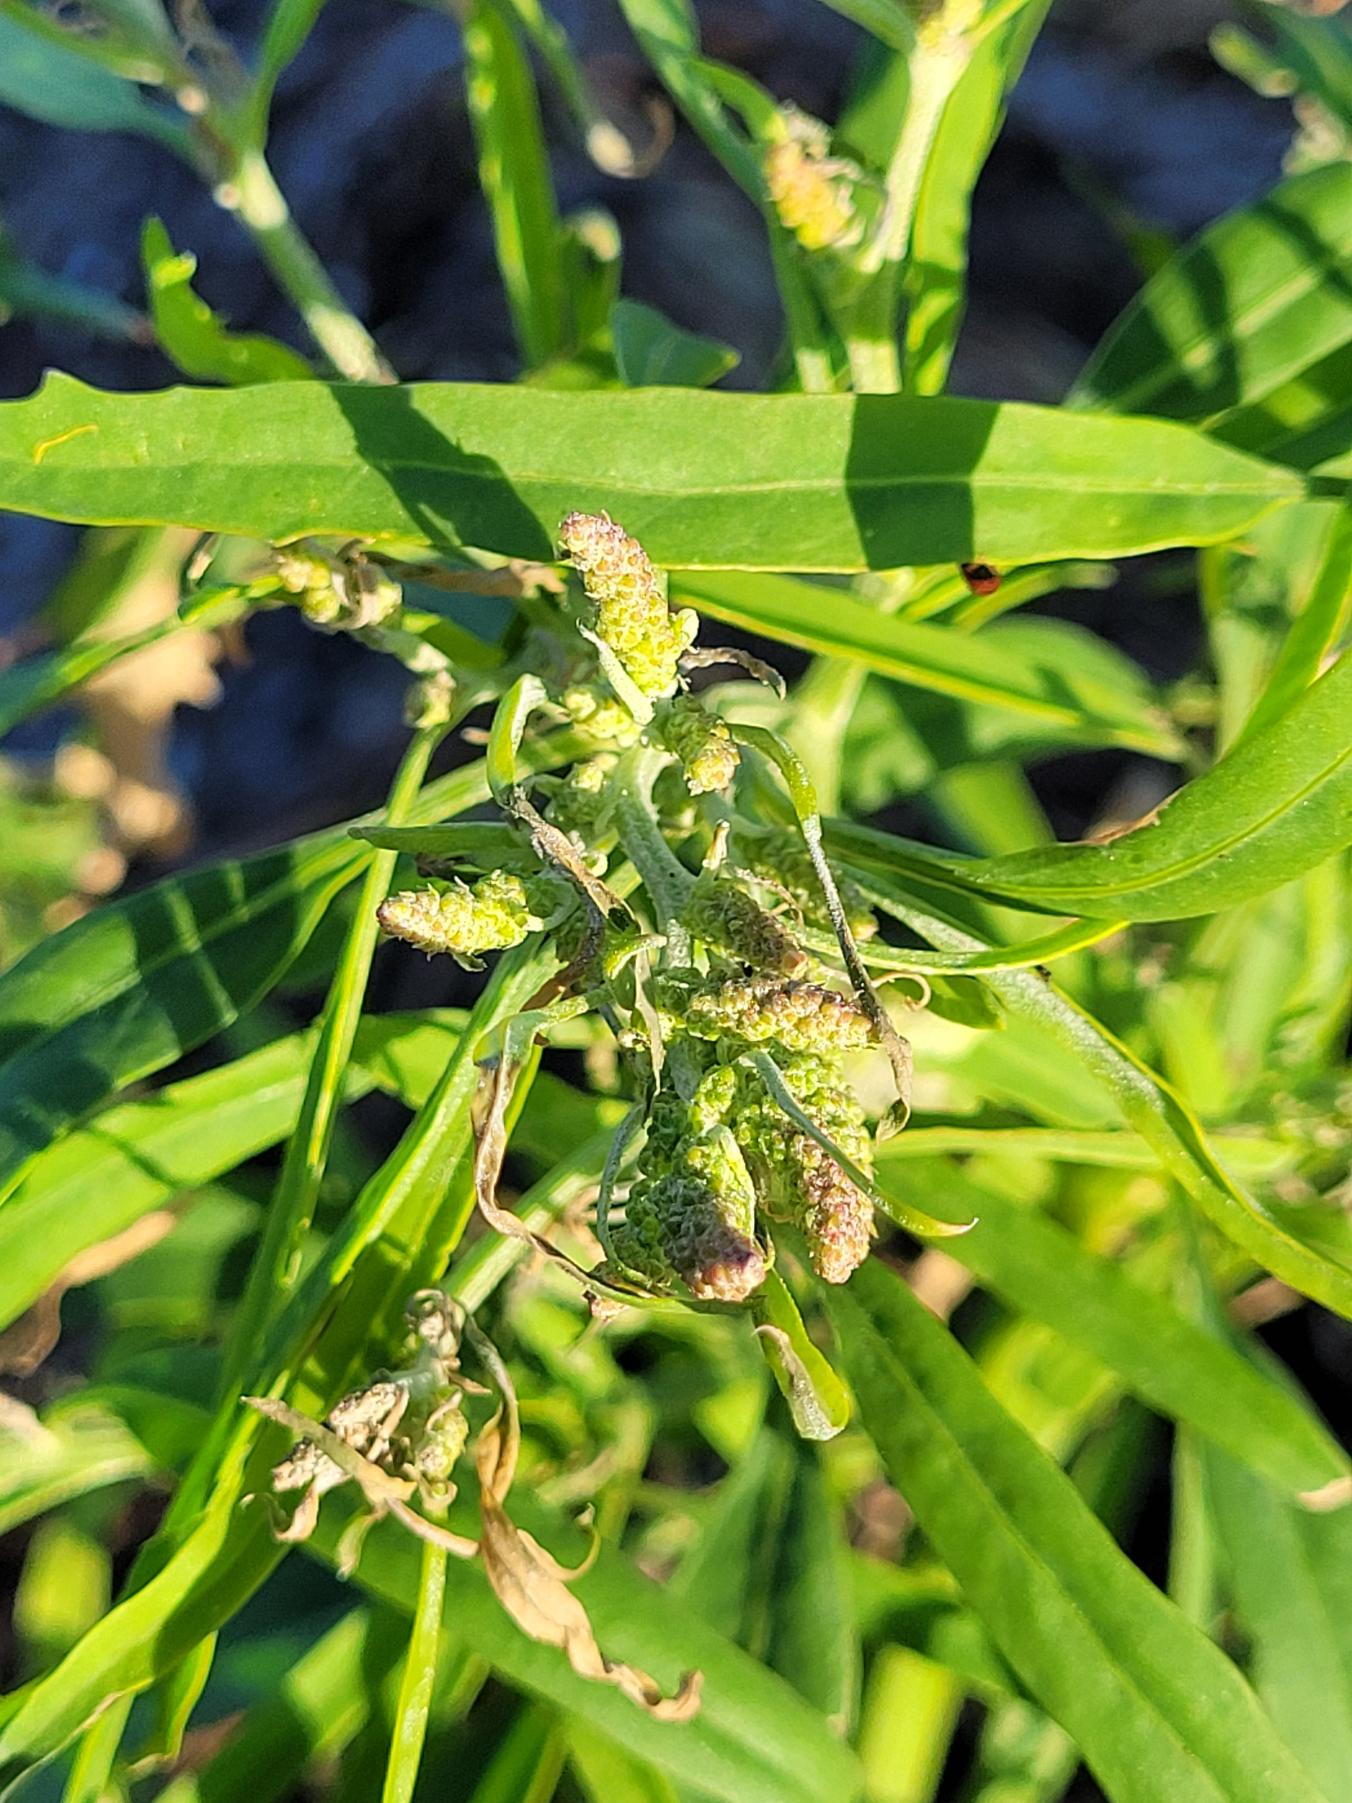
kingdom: Plantae
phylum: Tracheophyta
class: Magnoliopsida
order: Caryophyllales
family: Amaranthaceae
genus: Atriplex
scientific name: Atriplex littoralis
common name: Strand-mælde
